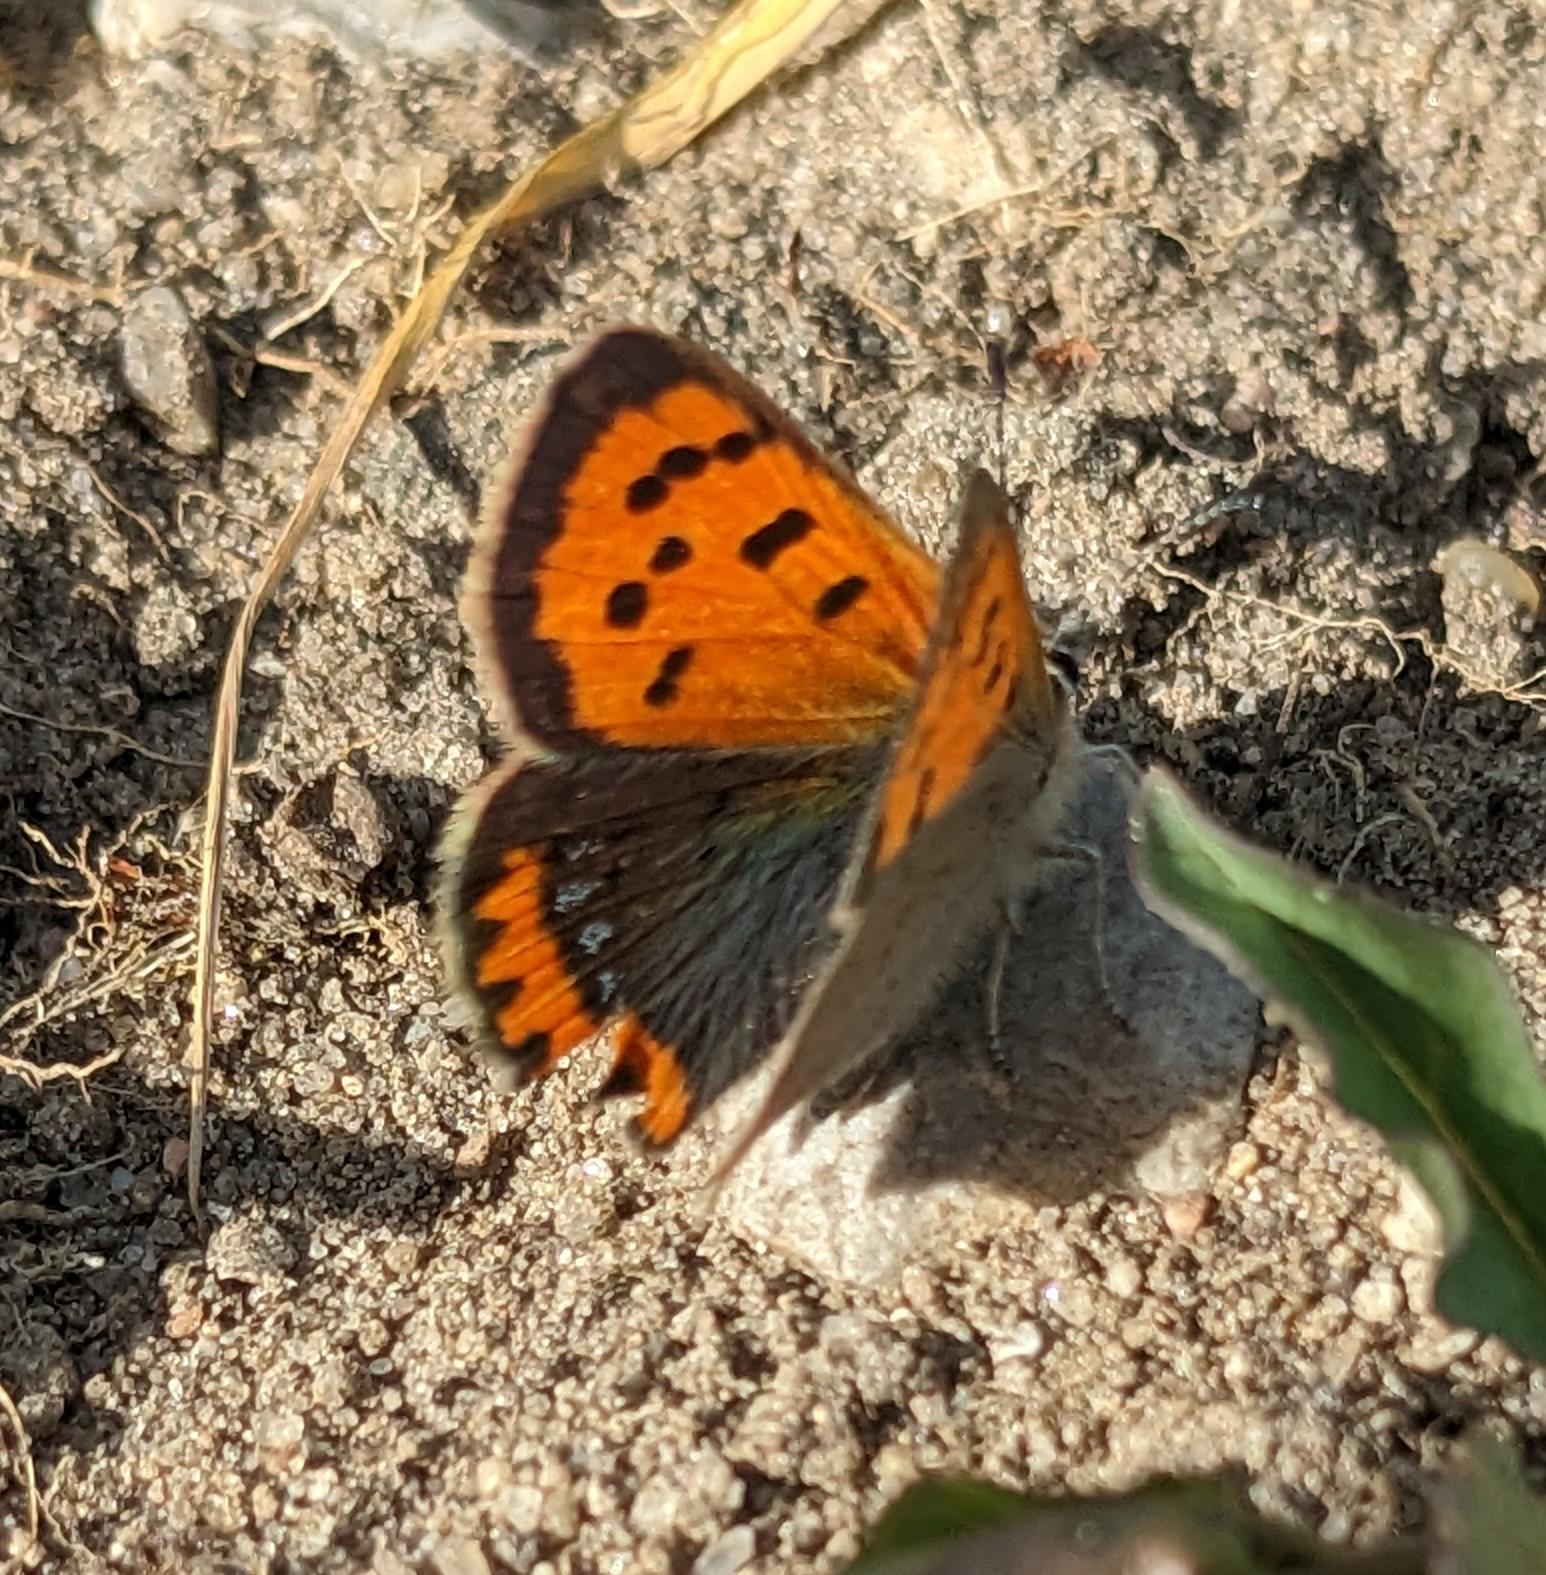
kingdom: Animalia
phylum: Arthropoda
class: Insecta
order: Lepidoptera
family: Lycaenidae
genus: Lycaena
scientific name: Lycaena phlaeas
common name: Lille ildfugl
